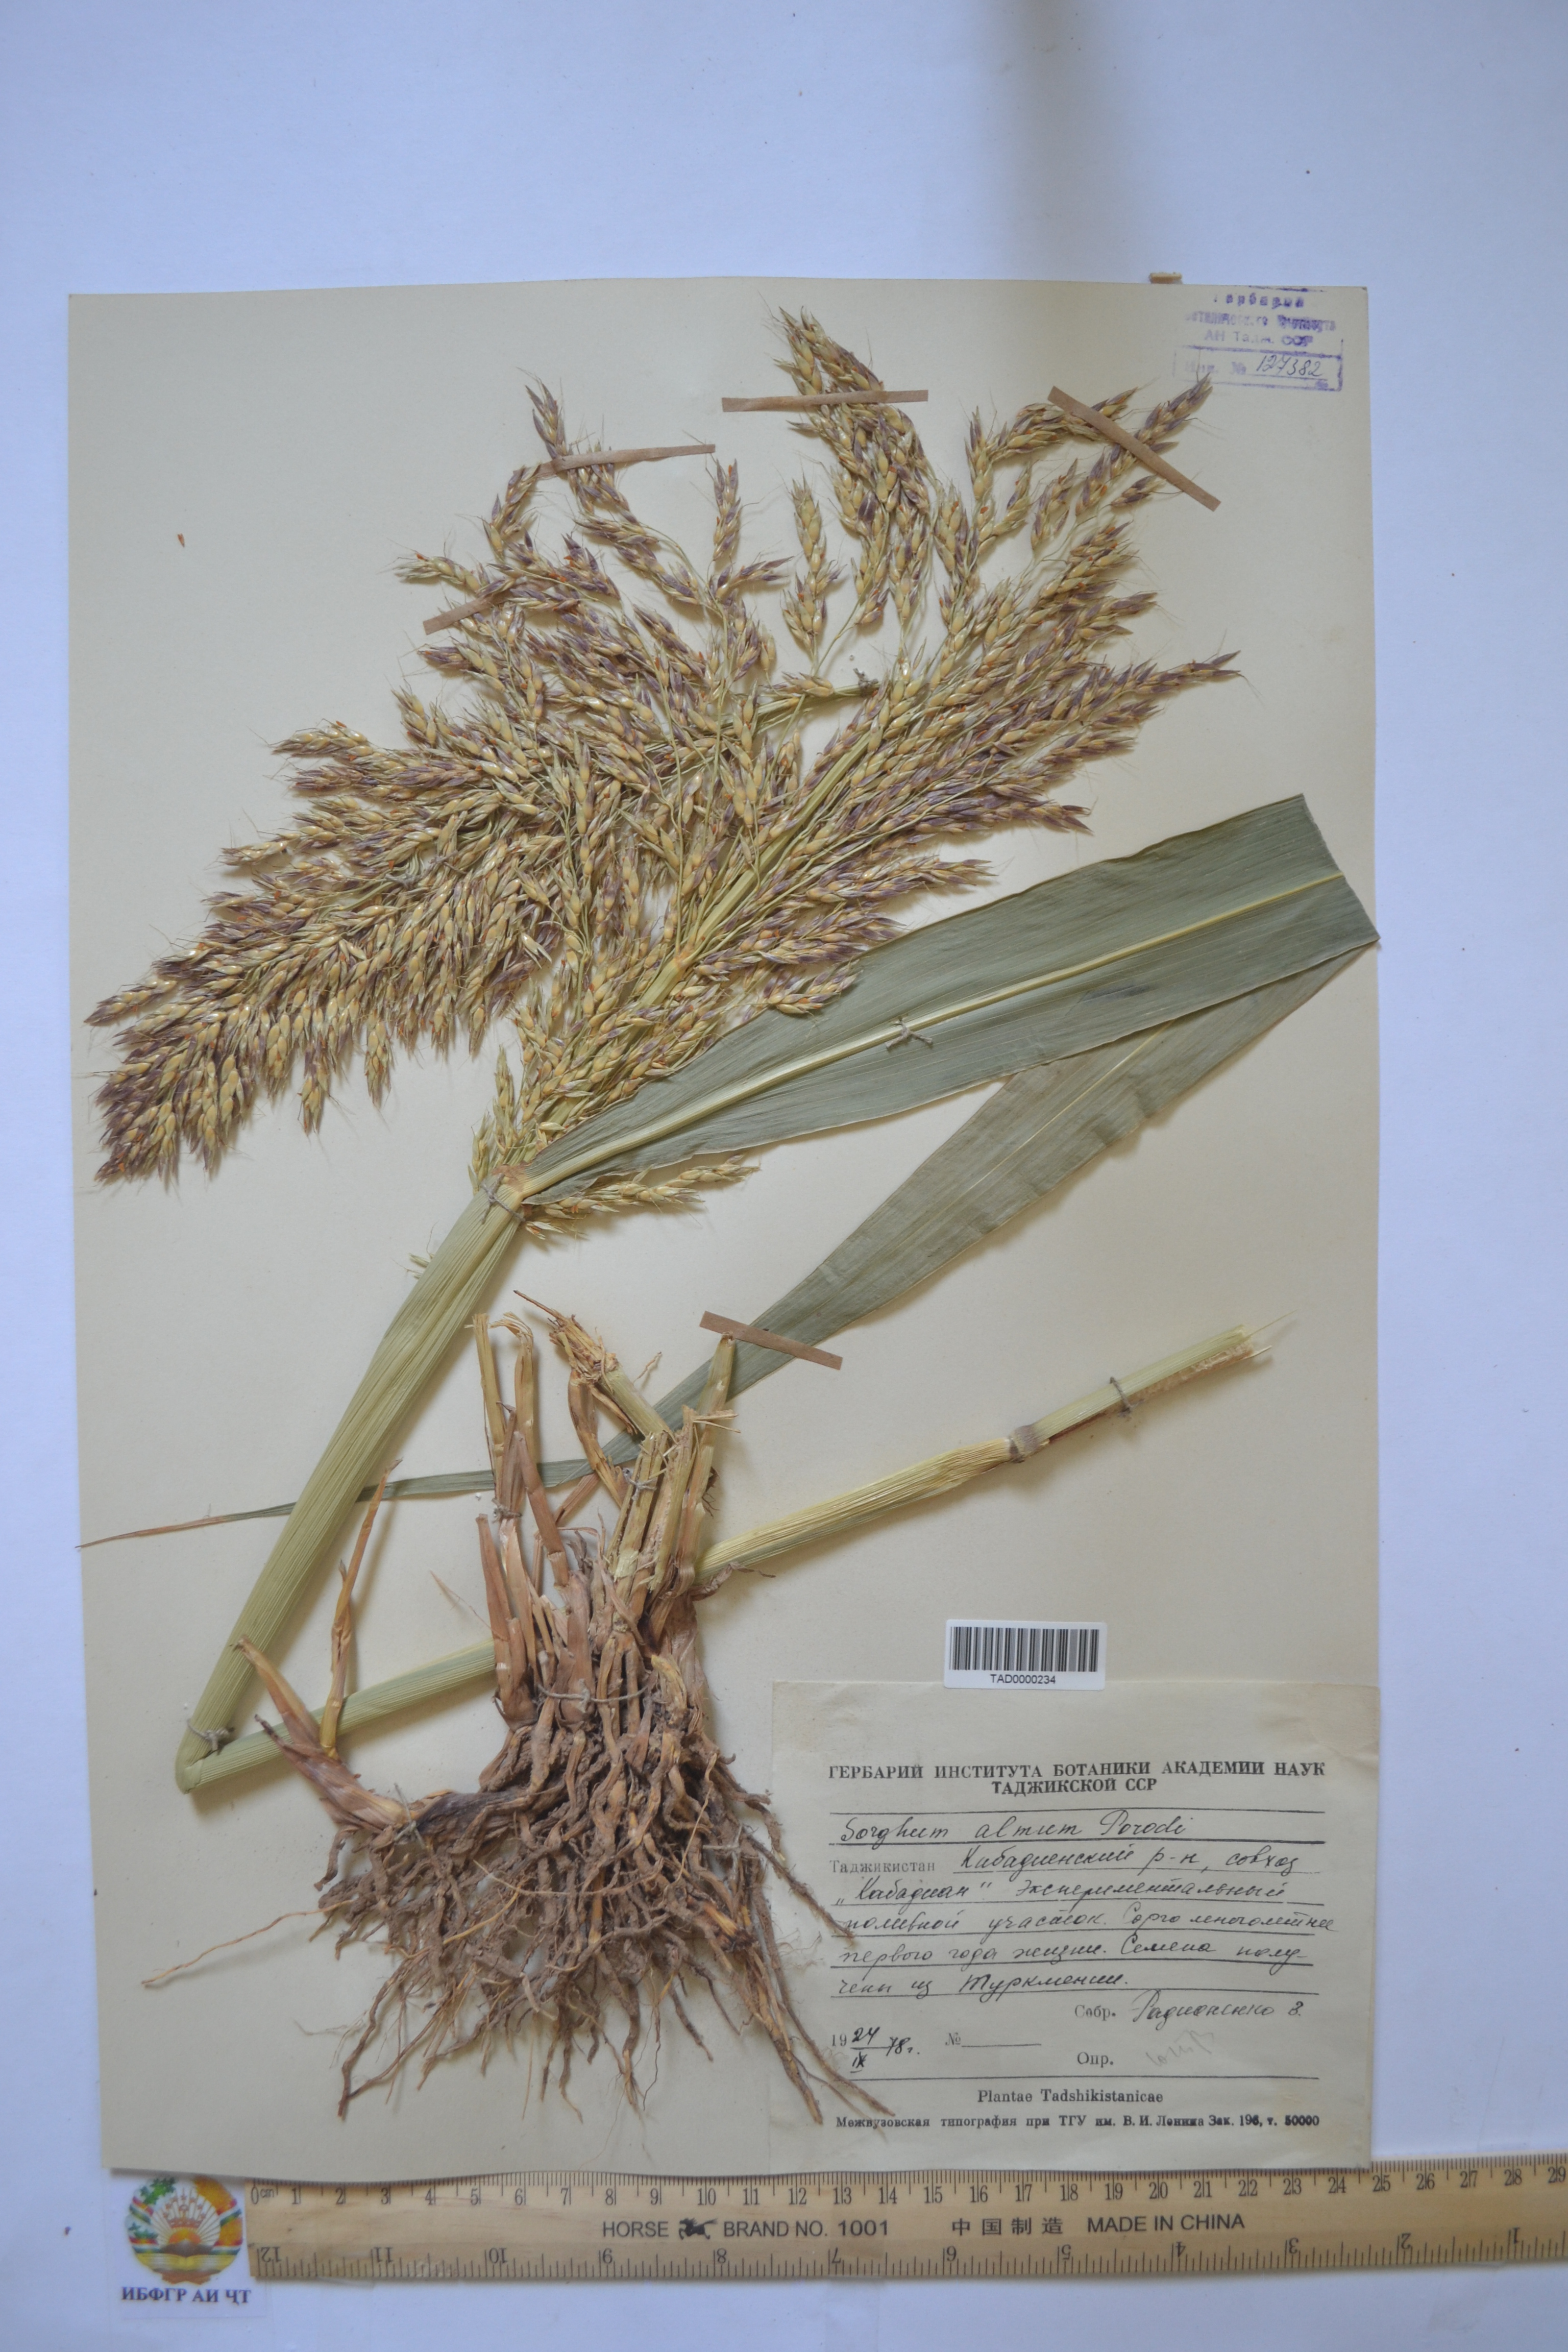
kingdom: Plantae
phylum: Tracheophyta
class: Liliopsida
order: Poales
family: Poaceae
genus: Sorghum
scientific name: Sorghum almum
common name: Columbus grass
